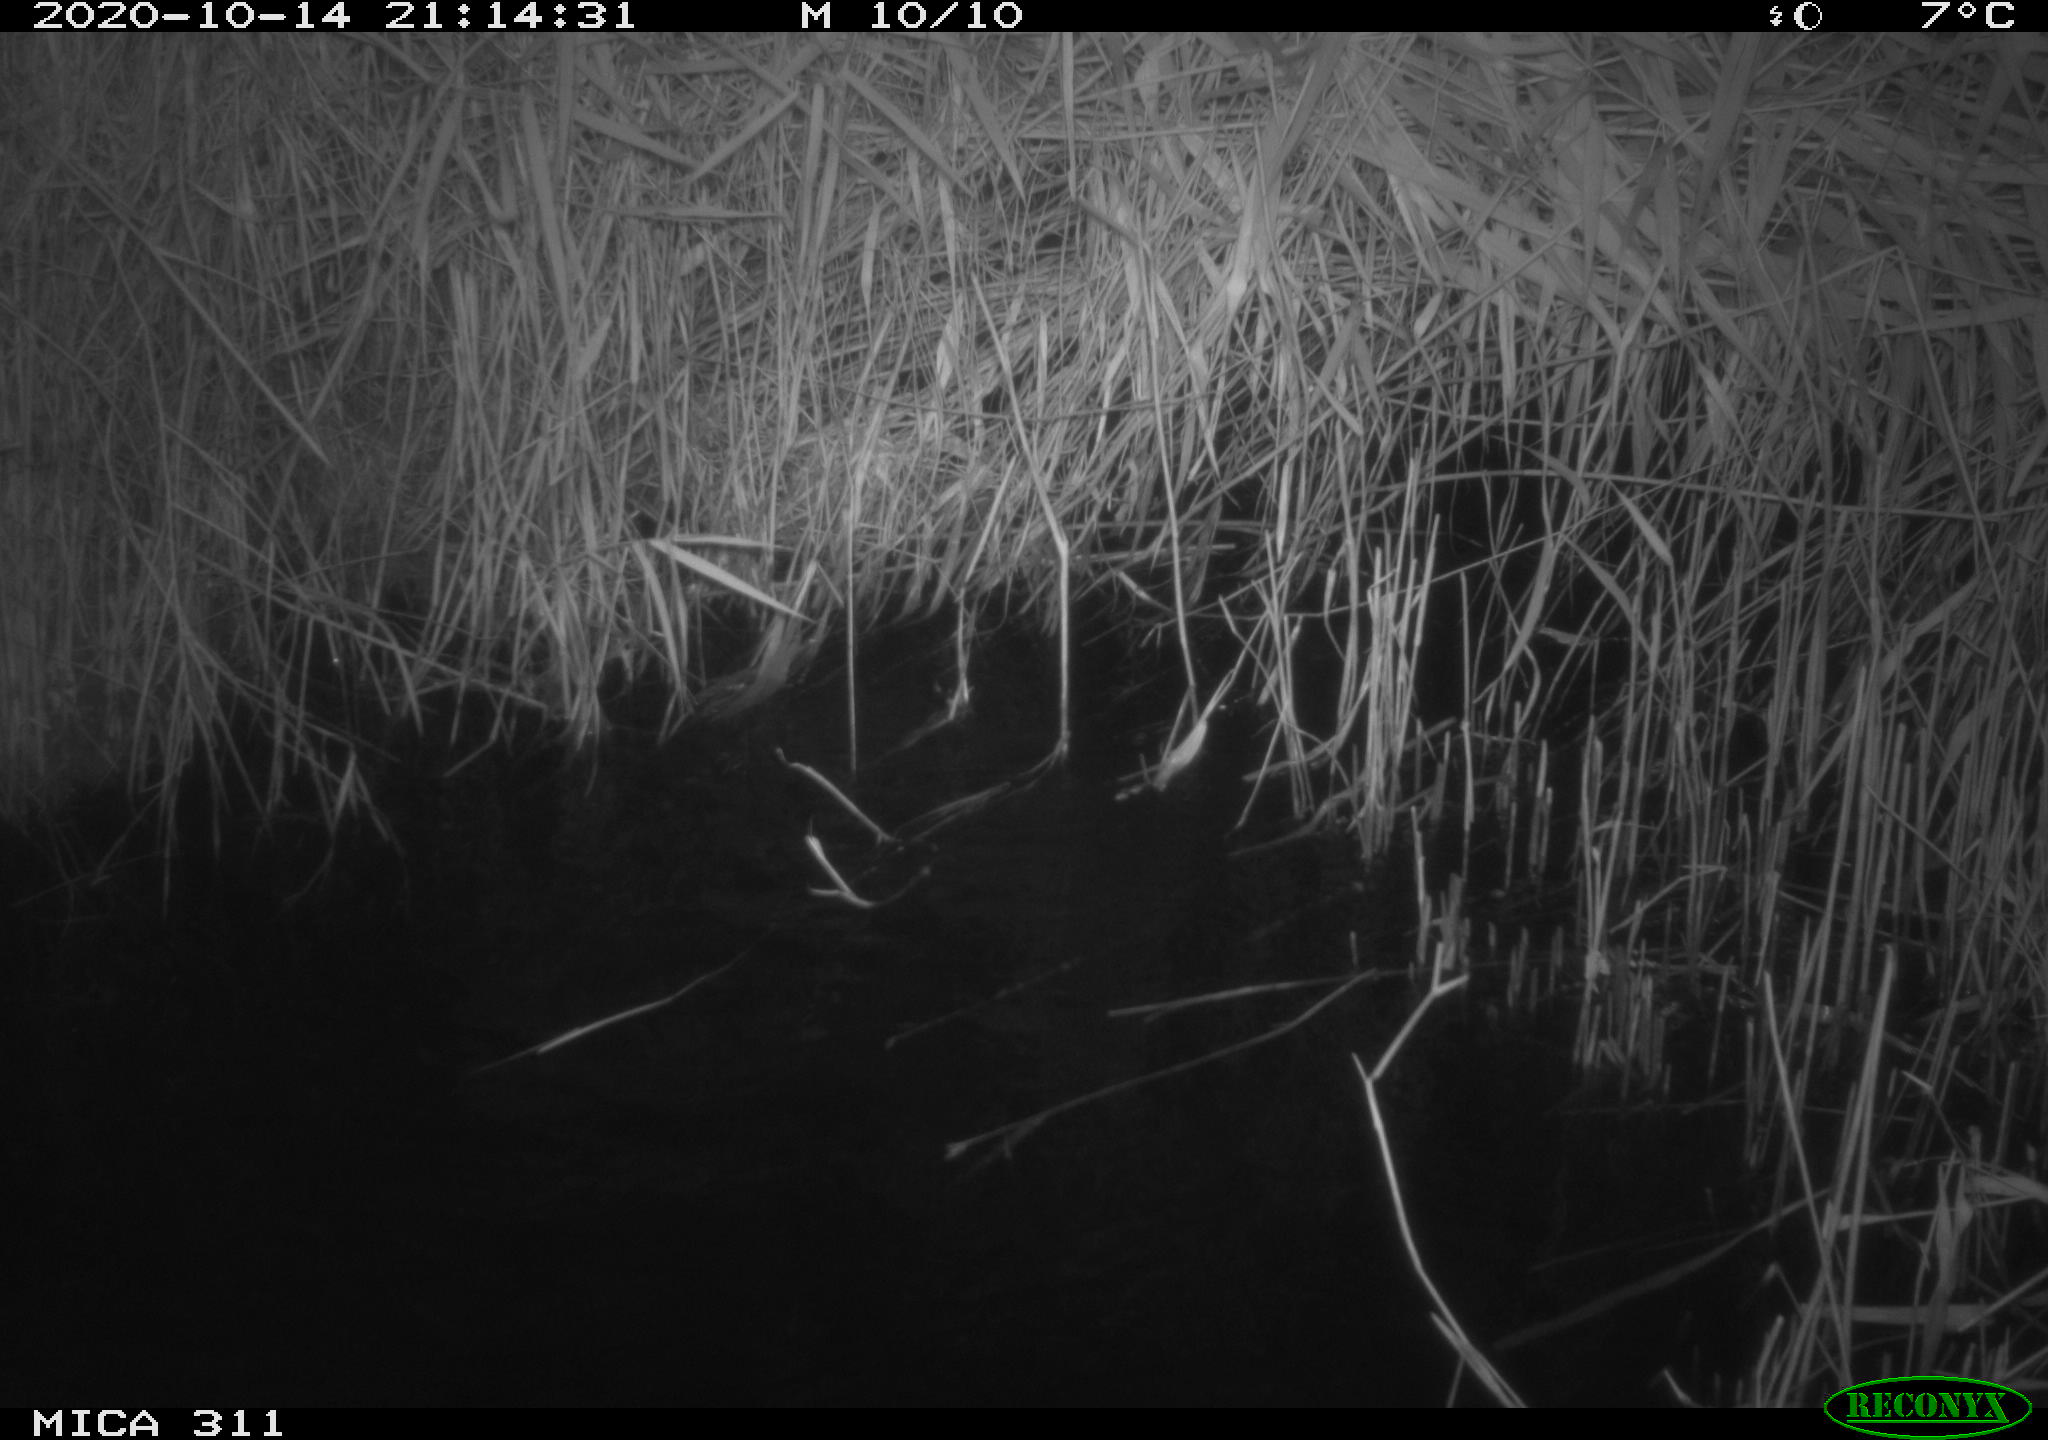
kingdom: Animalia
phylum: Chordata
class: Mammalia
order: Rodentia
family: Muridae
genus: Rattus
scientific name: Rattus norvegicus
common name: Brown rat
